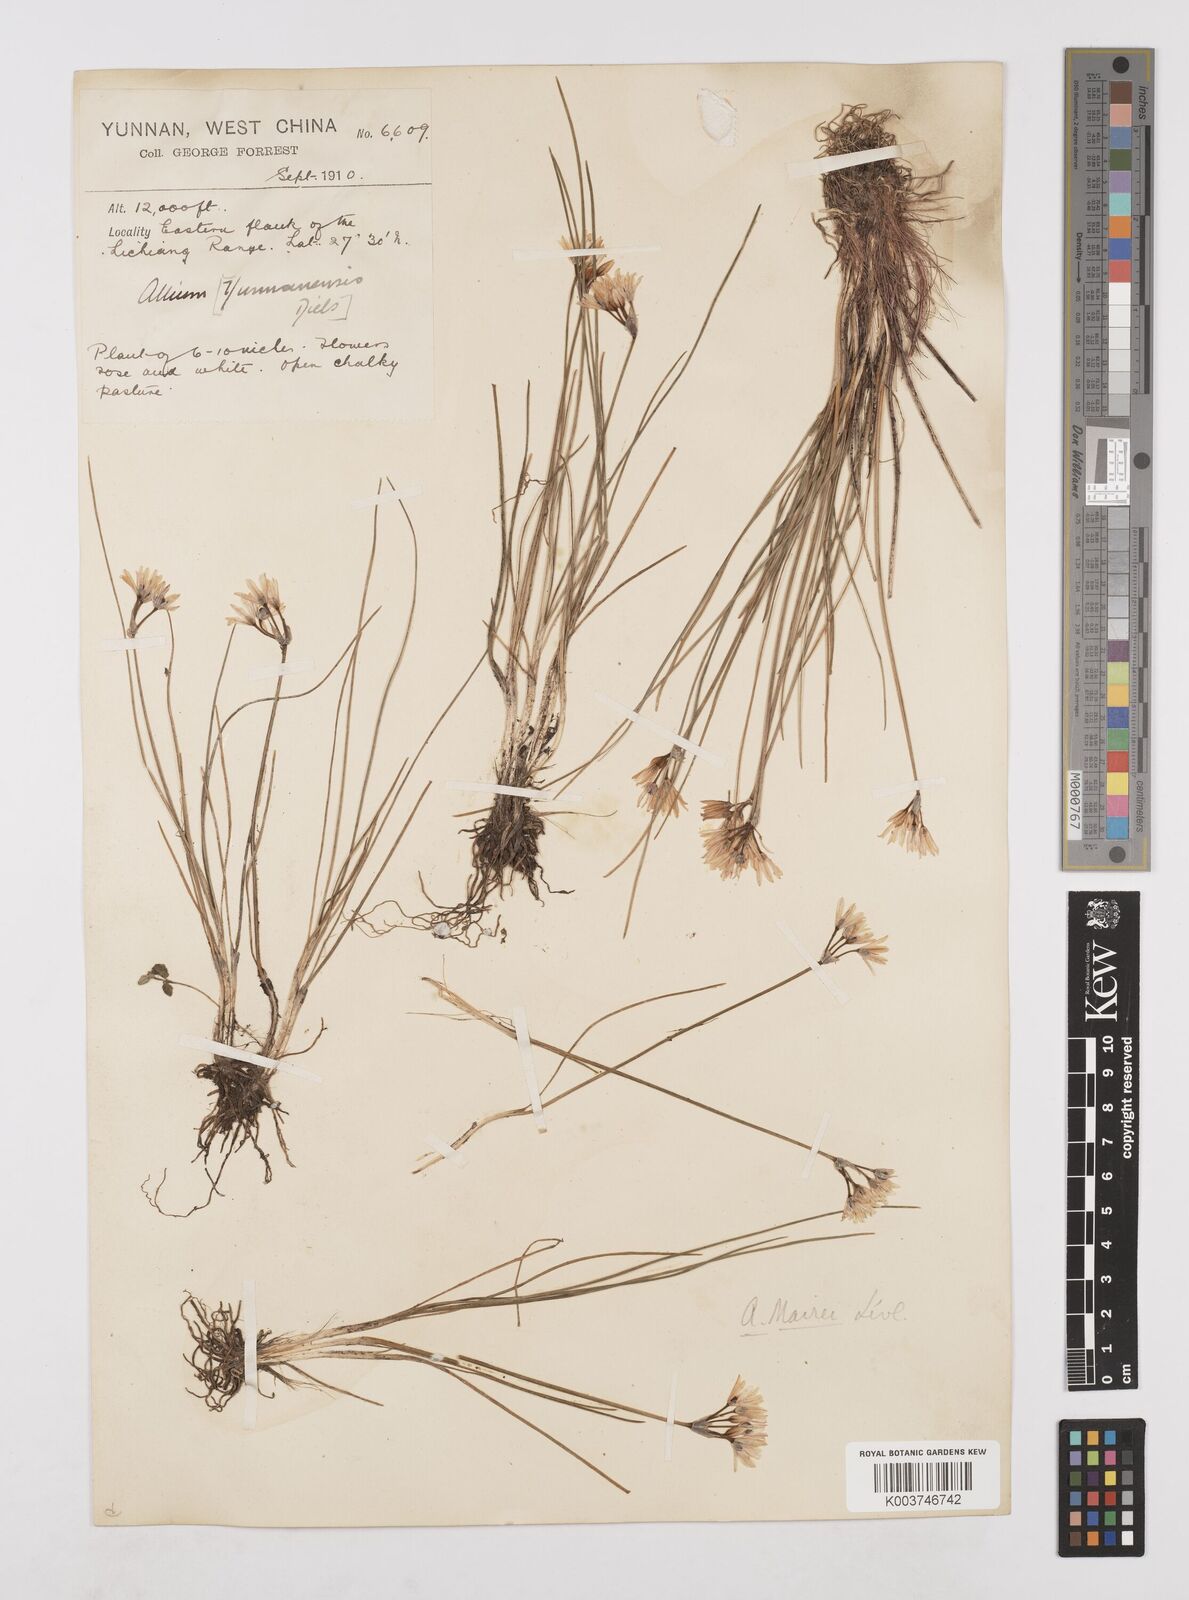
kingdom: Plantae
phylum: Tracheophyta
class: Liliopsida
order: Asparagales
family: Amaryllidaceae
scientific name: Amaryllidaceae
